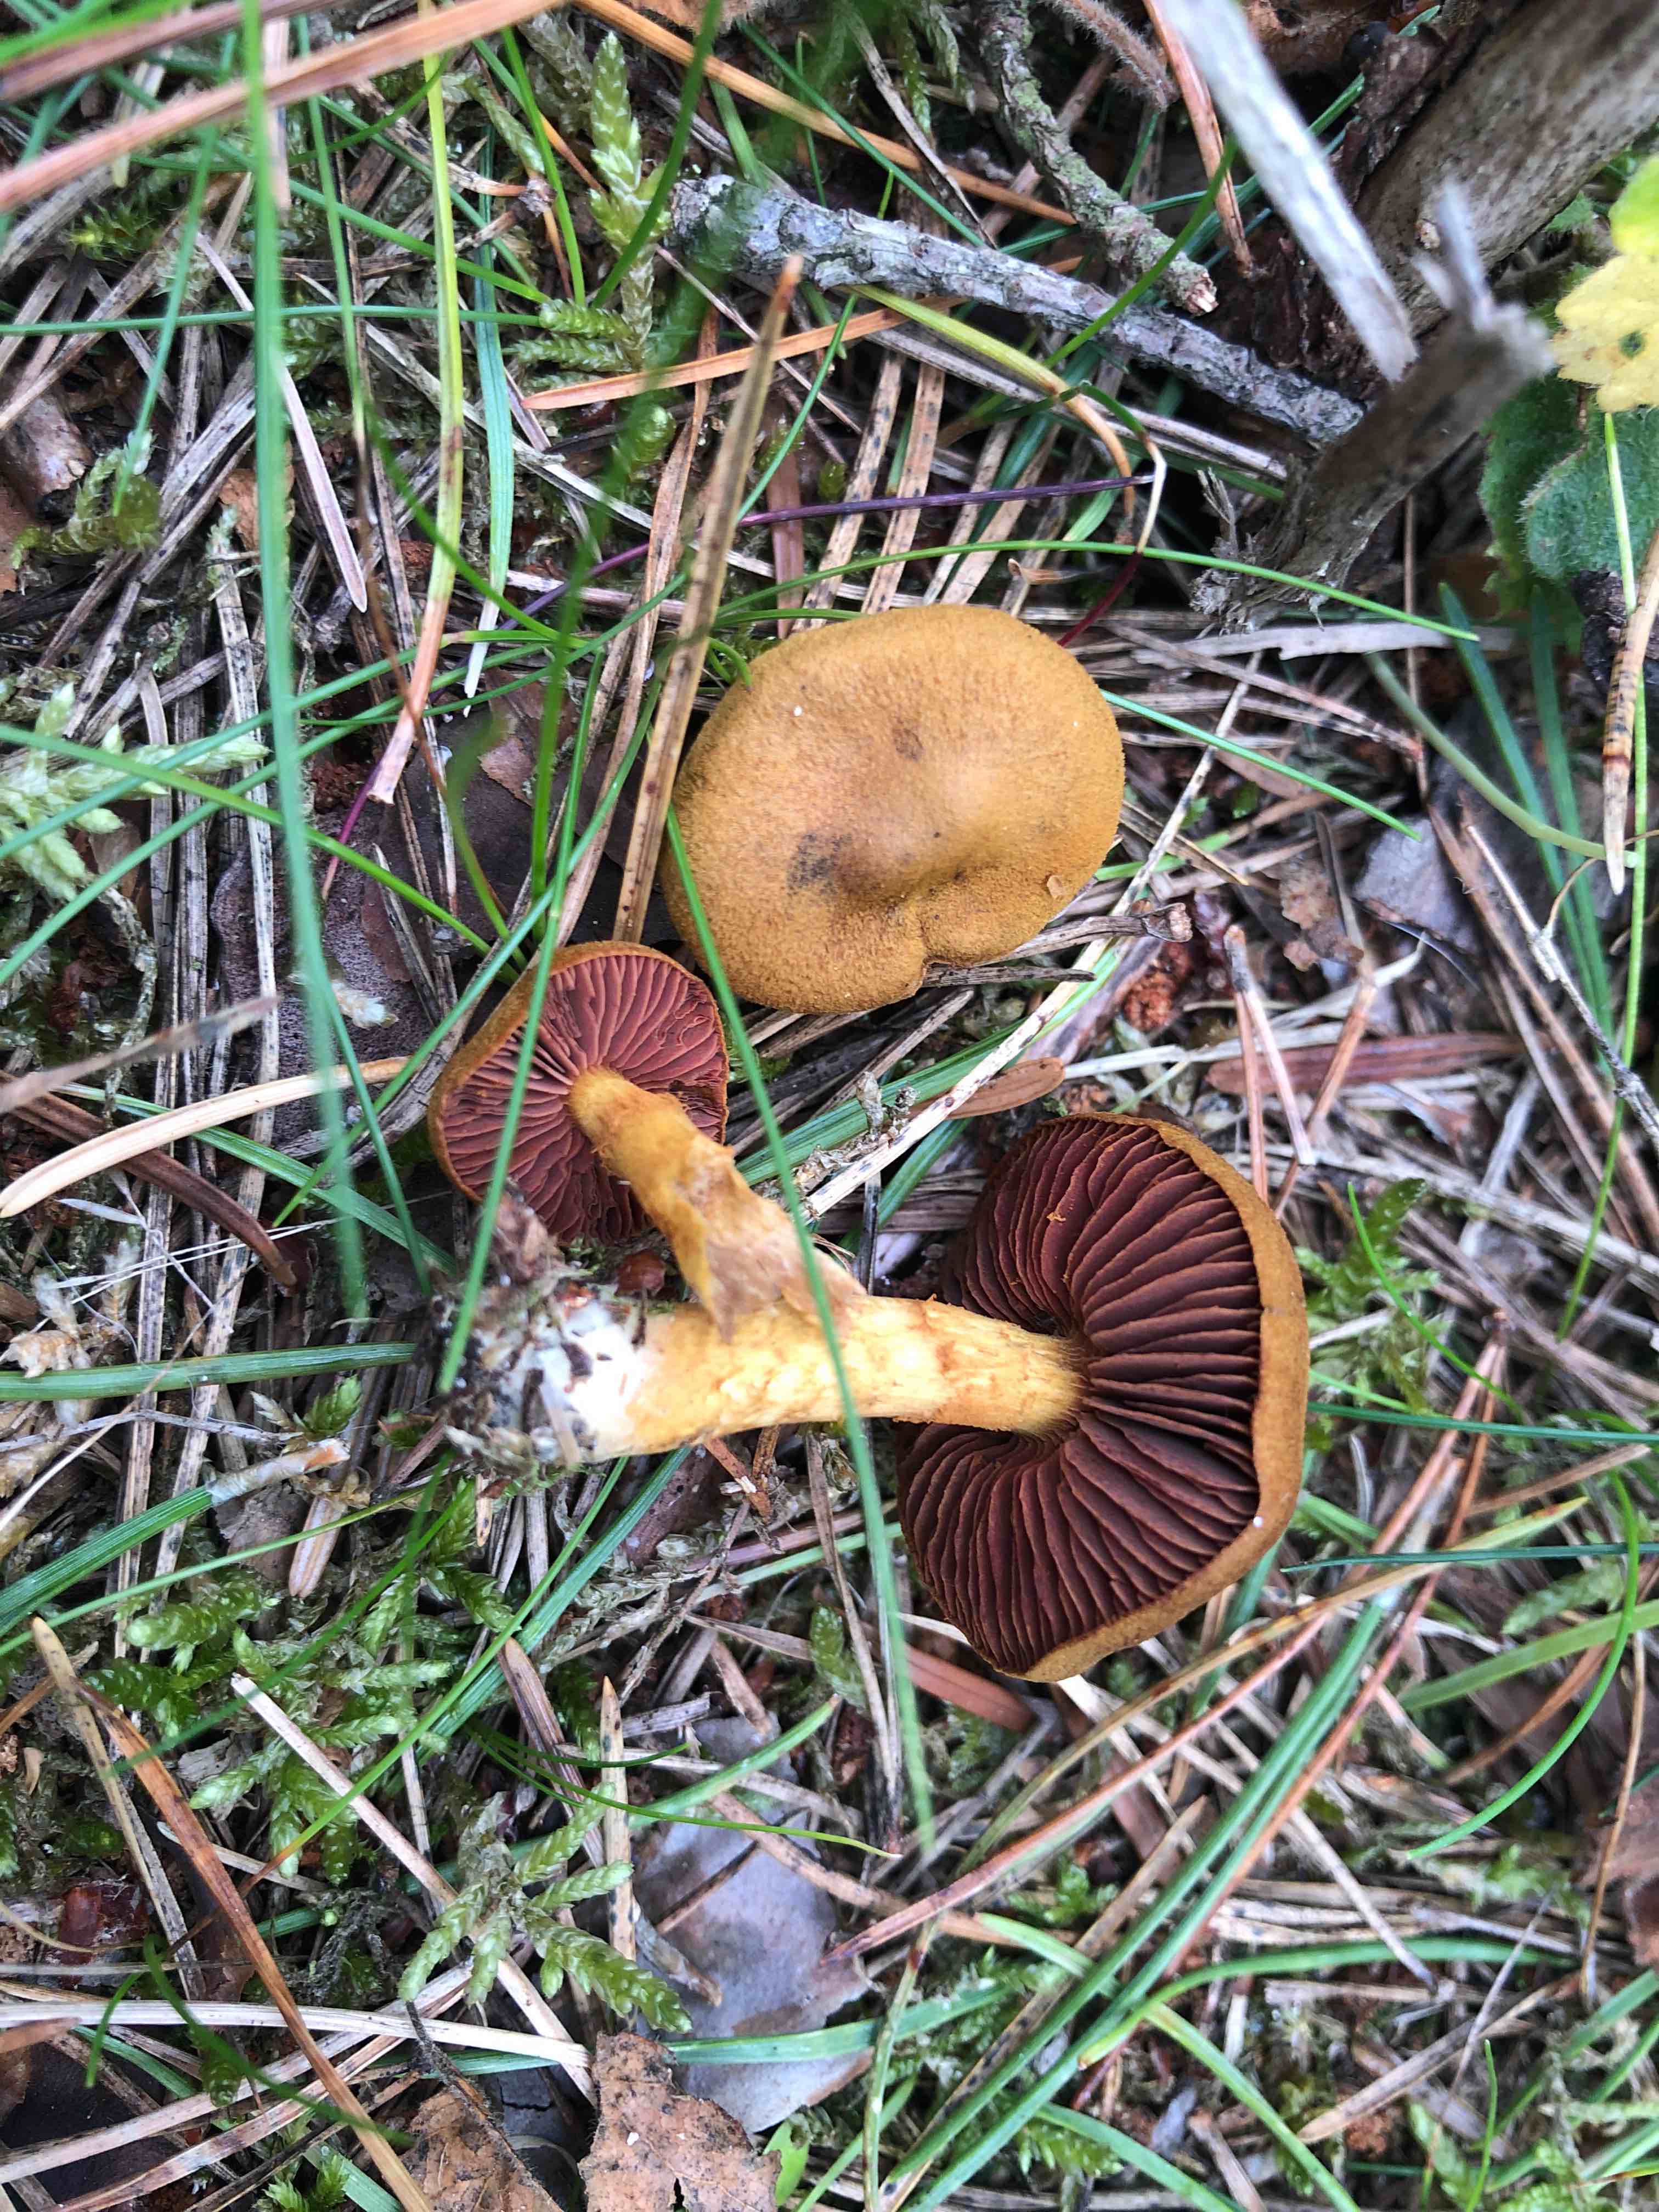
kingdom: Fungi
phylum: Basidiomycota
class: Agaricomycetes
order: Agaricales
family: Cortinariaceae
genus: Cortinarius
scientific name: Cortinarius
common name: cinnoberbladet slørhat
